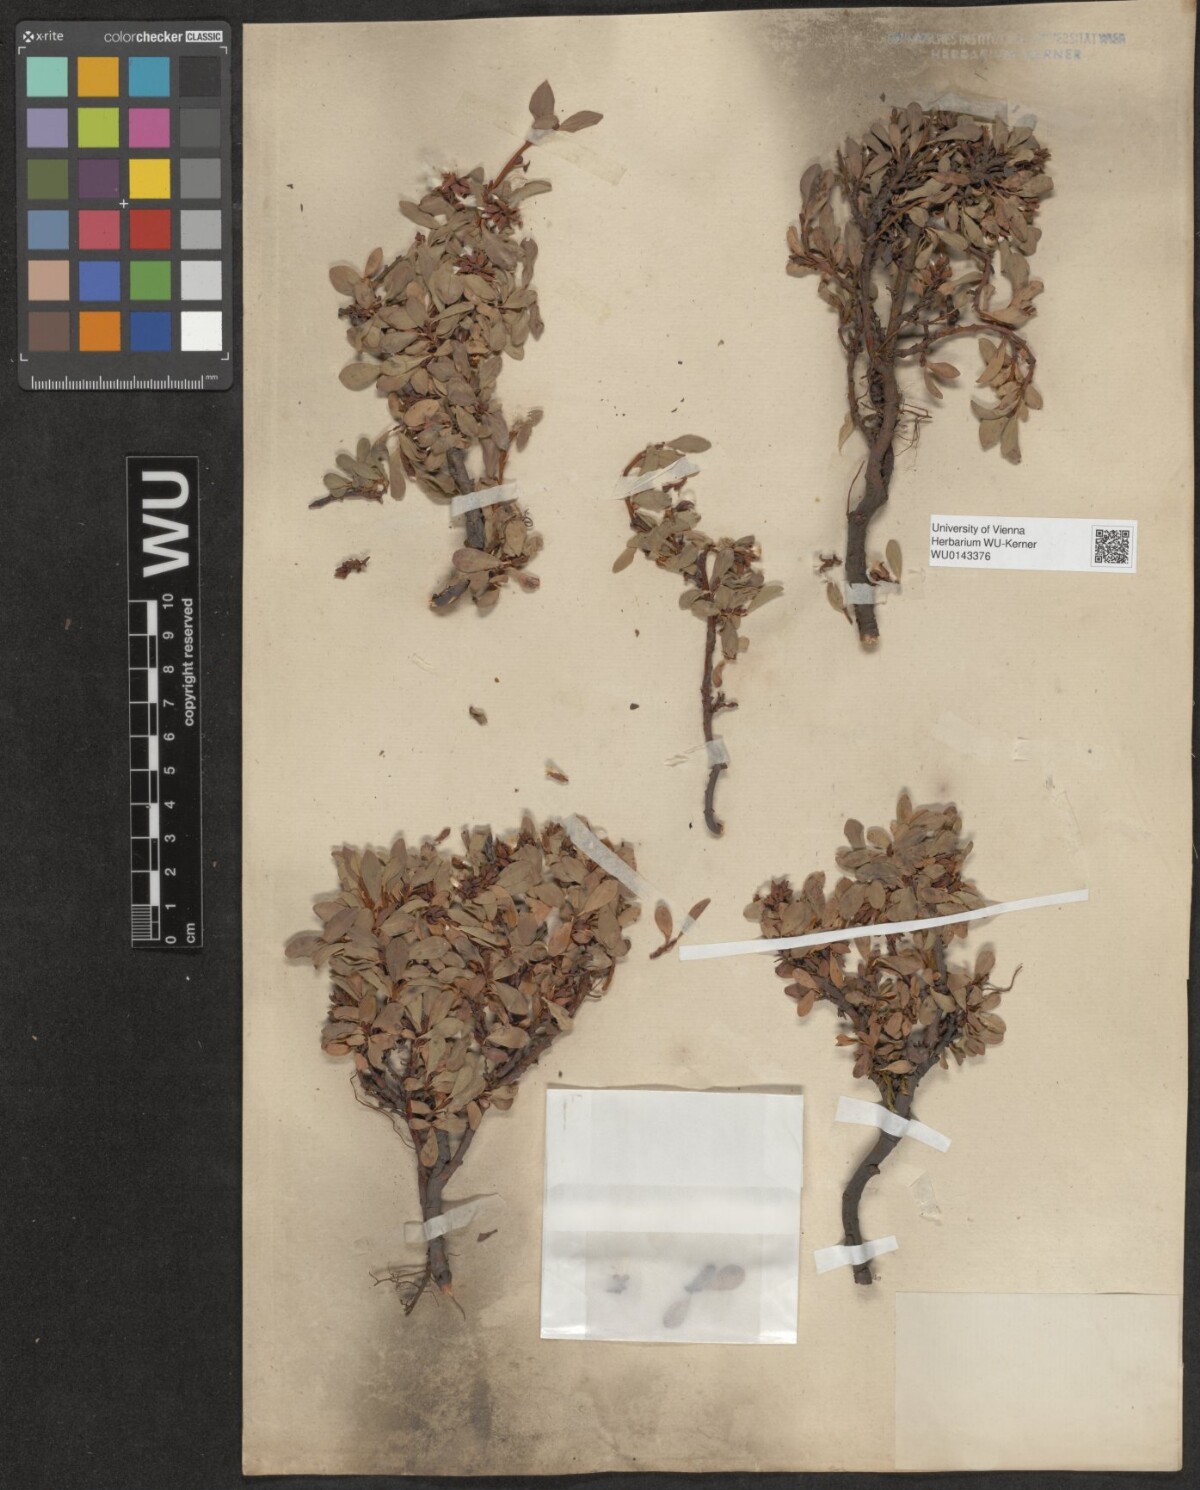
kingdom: Plantae
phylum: Tracheophyta
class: Magnoliopsida
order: Malpighiales
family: Salicaceae
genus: Salix
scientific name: Salix retusa
